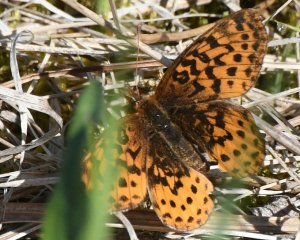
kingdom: Animalia
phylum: Arthropoda
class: Insecta
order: Lepidoptera
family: Nymphalidae
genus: Clossiana
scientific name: Clossiana toddi
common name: Meadow Fritillary
